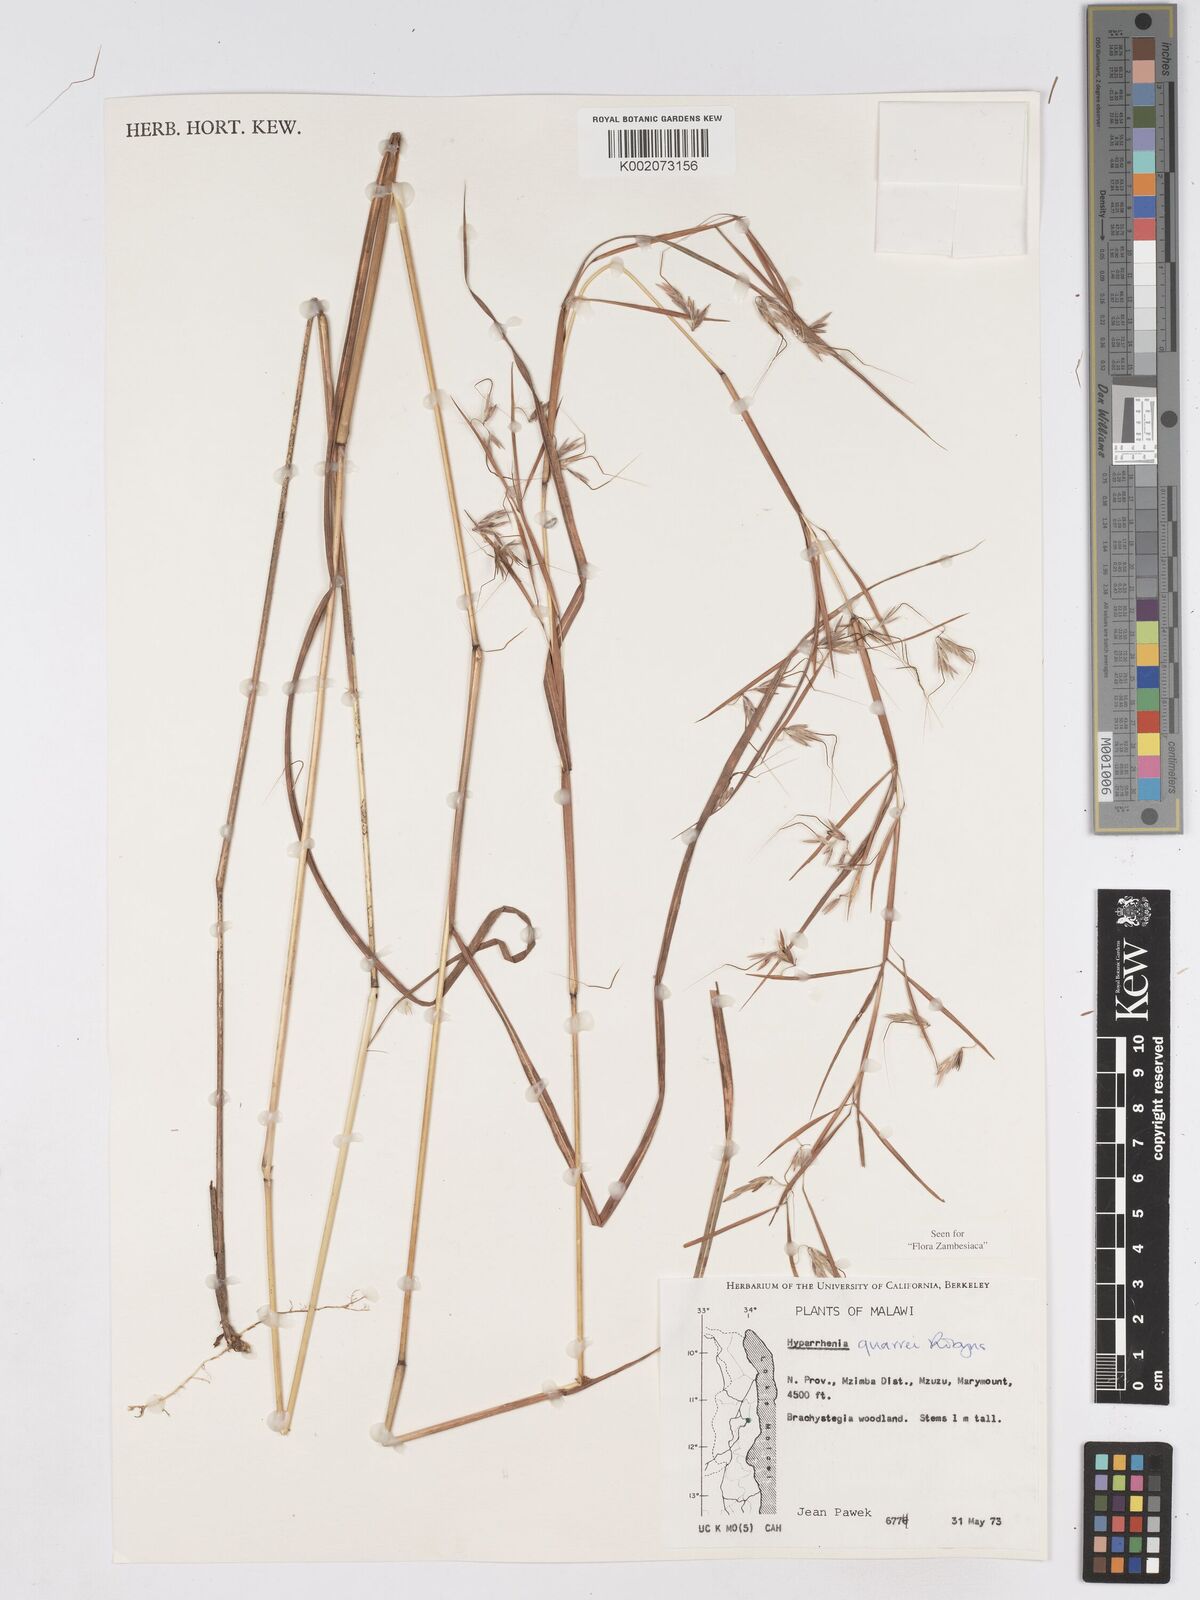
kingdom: Plantae
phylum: Tracheophyta
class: Liliopsida
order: Poales
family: Poaceae
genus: Hyparrhenia
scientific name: Hyparrhenia quarrei
